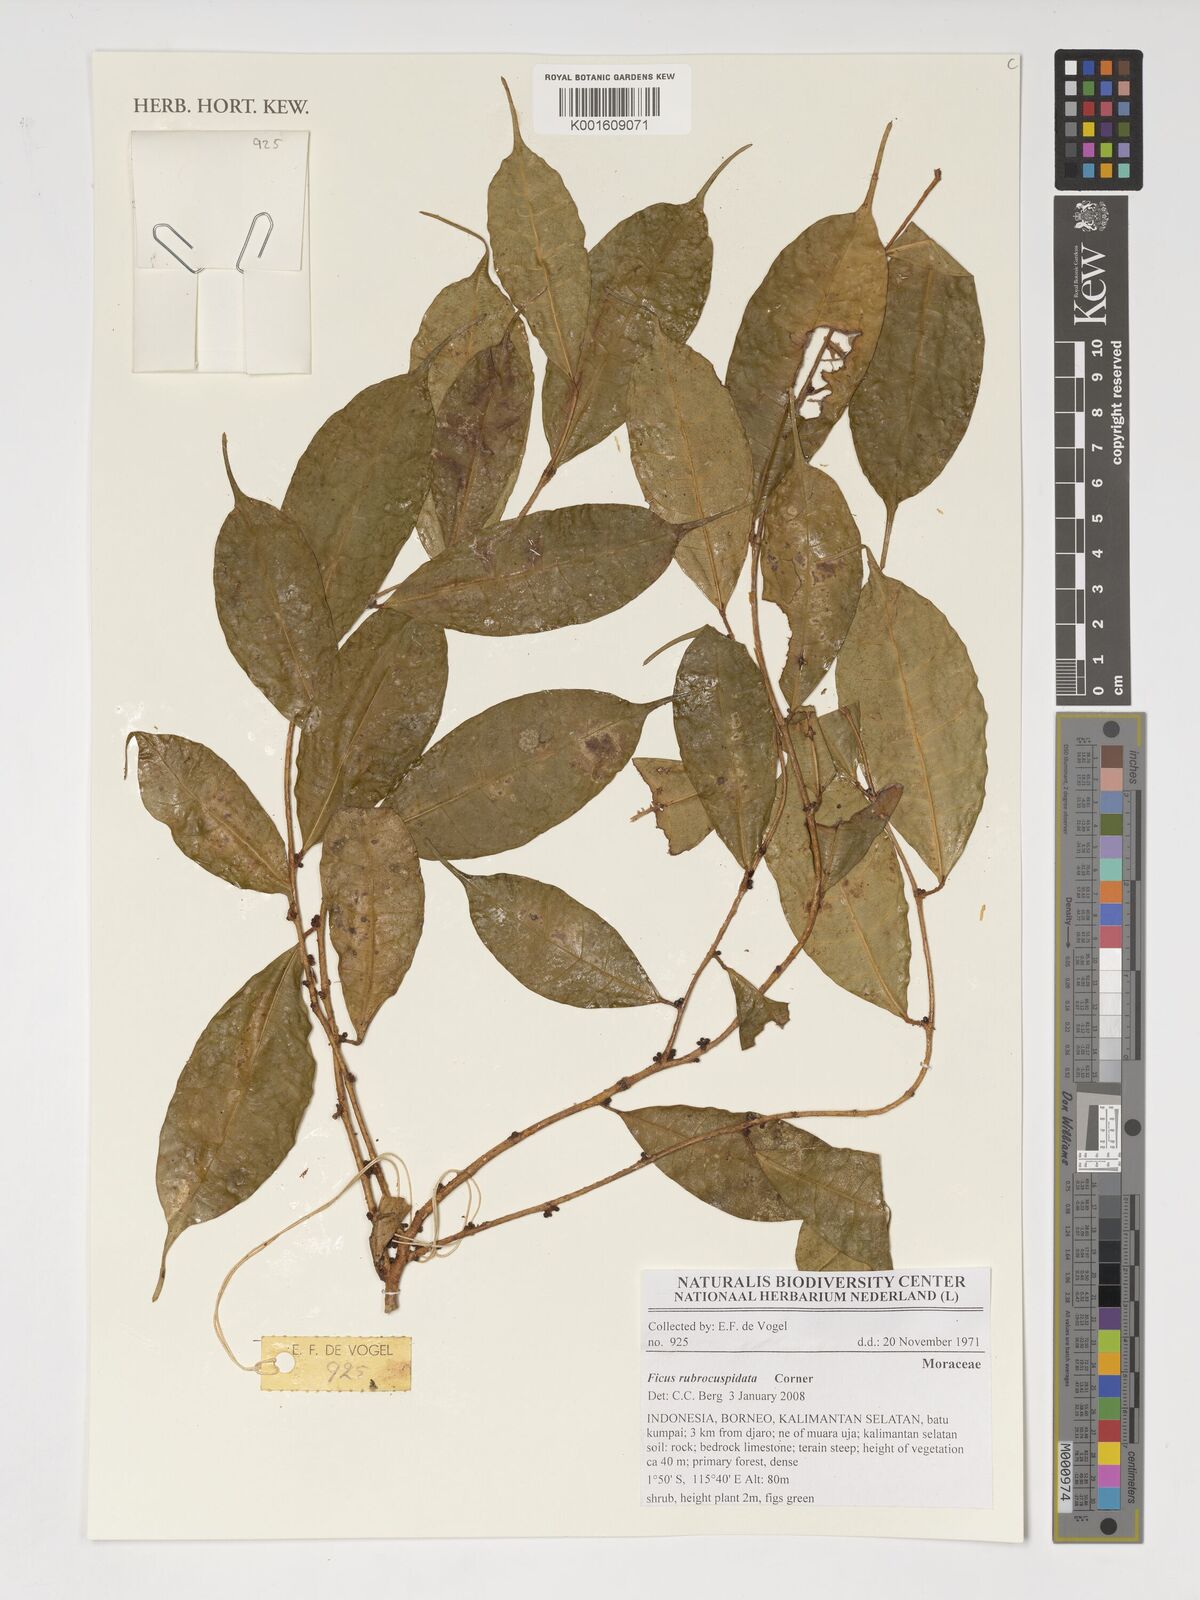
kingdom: Plantae
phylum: Tracheophyta
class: Magnoliopsida
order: Rosales
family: Moraceae
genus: Ficus
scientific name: Ficus rubrocuspidata
